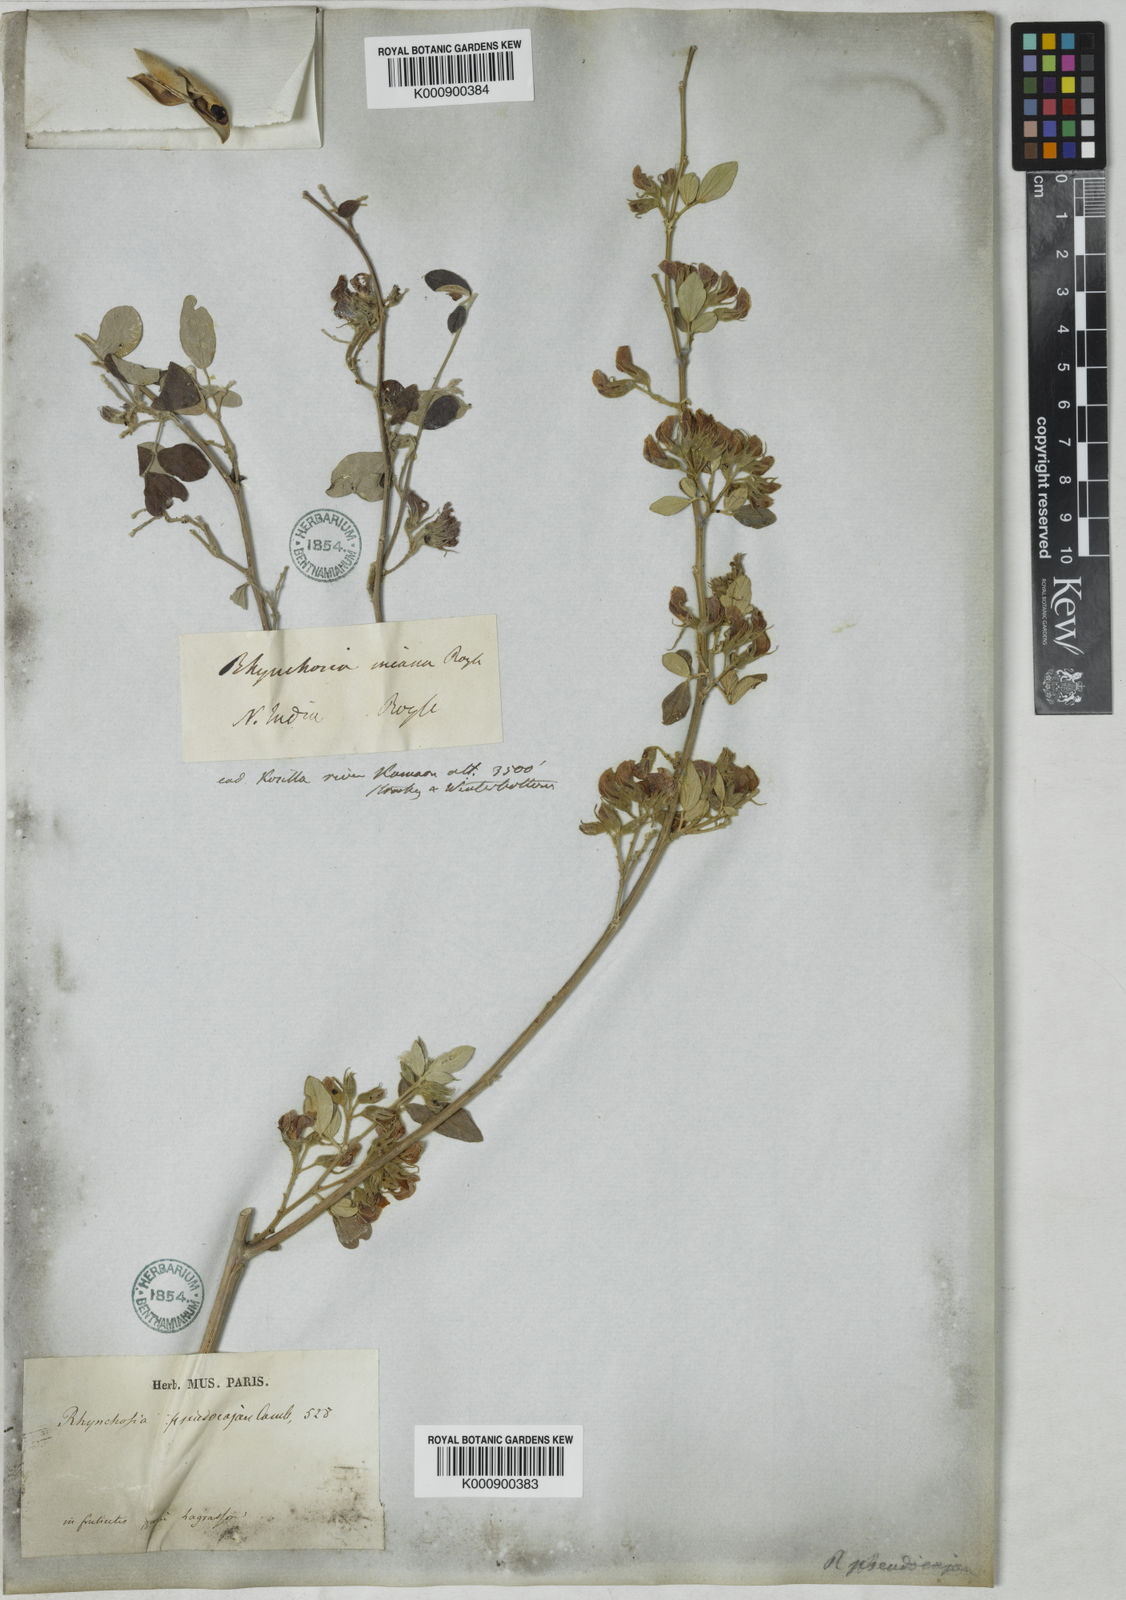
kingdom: Plantae
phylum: Tracheophyta
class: Magnoliopsida
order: Fabales
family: Fabaceae
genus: Rhynchosia
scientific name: Rhynchosia pseudocajan
